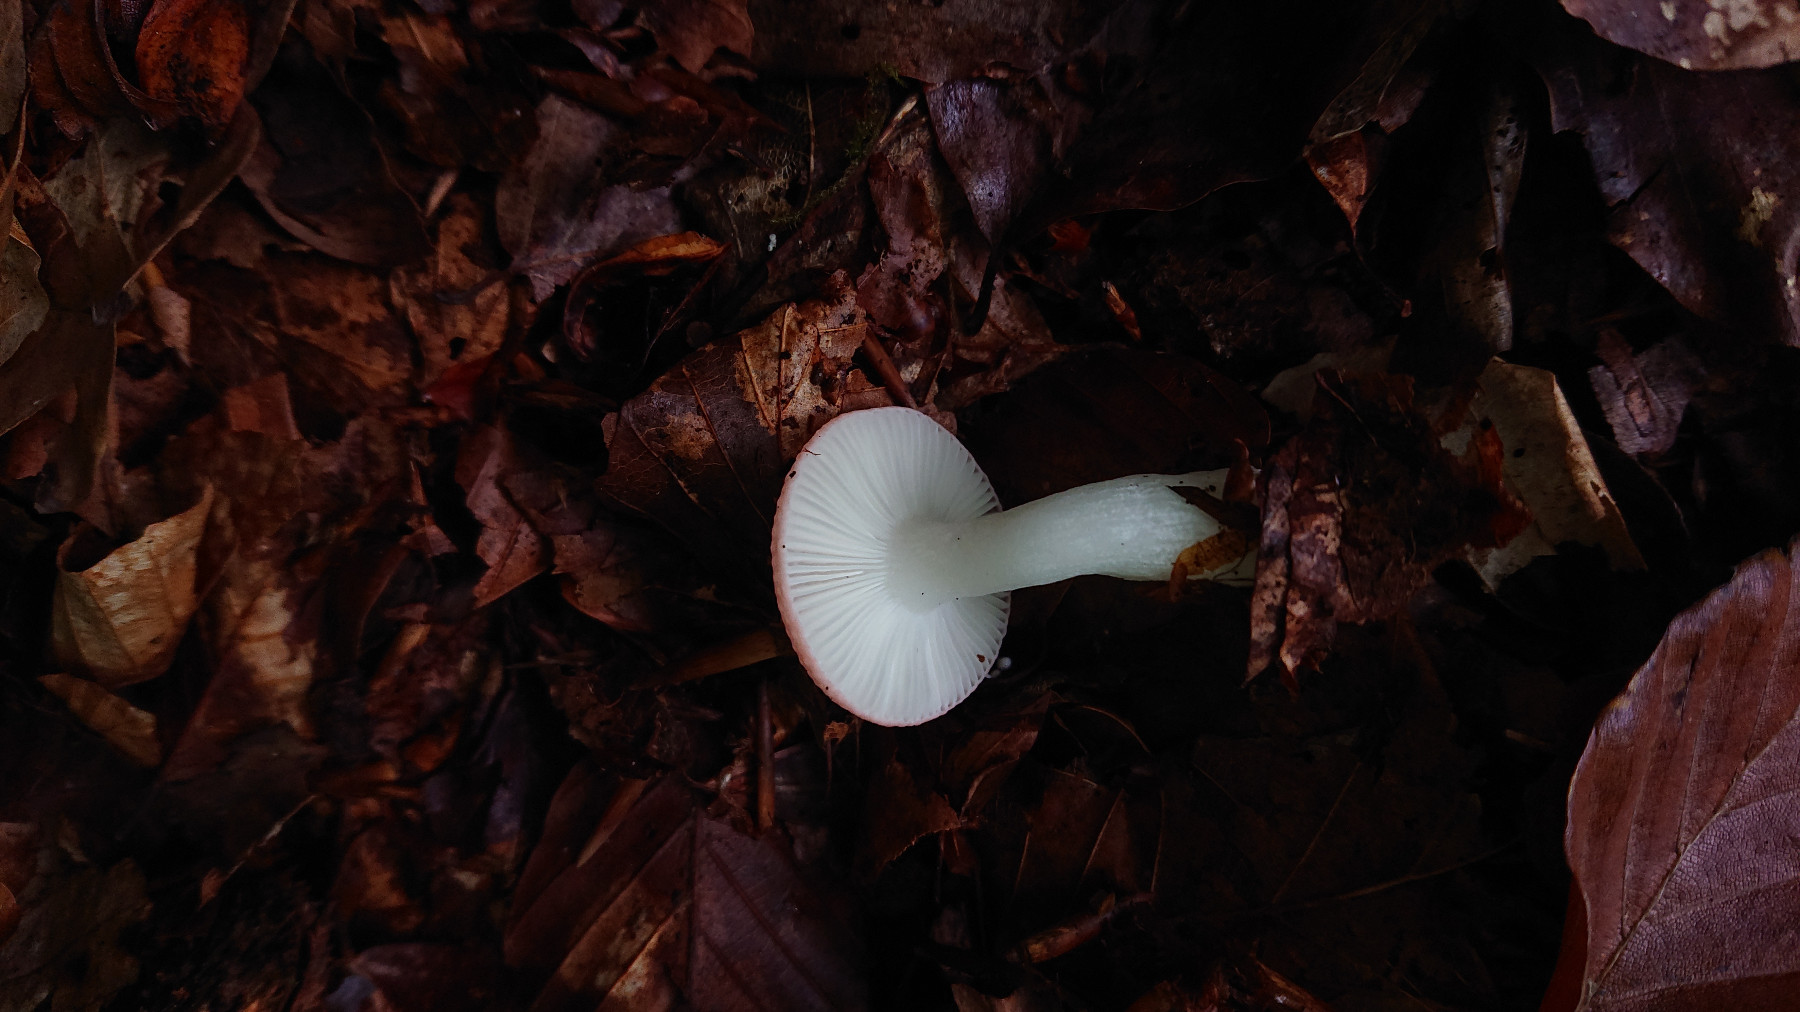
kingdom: Fungi
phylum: Basidiomycota
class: Agaricomycetes
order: Russulales
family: Russulaceae
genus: Russula
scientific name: Russula
